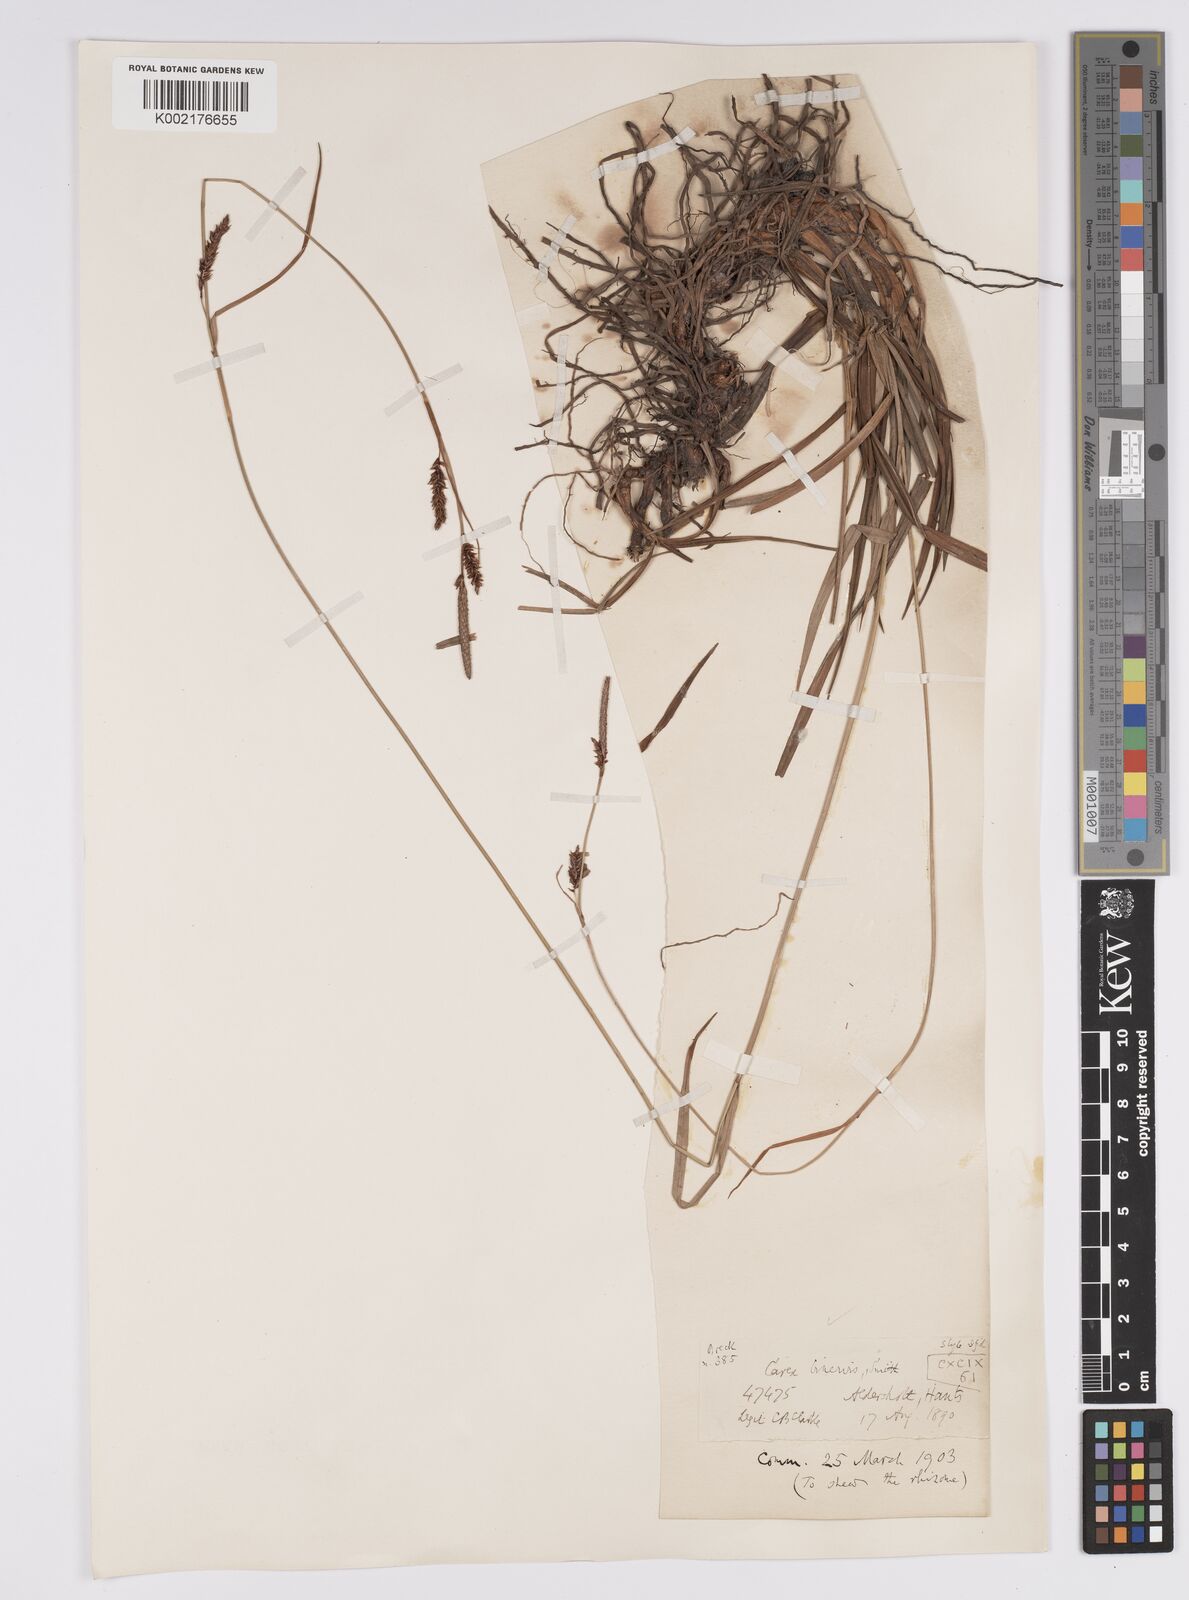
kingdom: Plantae
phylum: Tracheophyta
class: Liliopsida
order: Poales
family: Cyperaceae
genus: Carex
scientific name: Carex binervis
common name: Green-ribbed sedge
